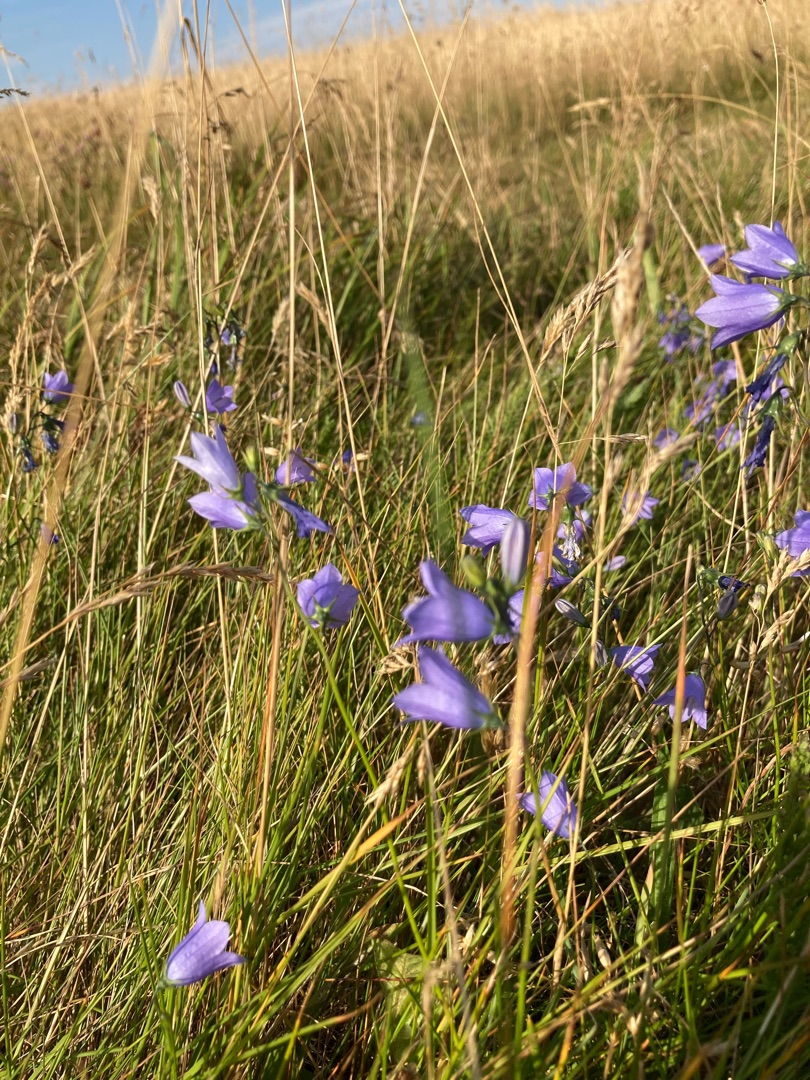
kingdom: Plantae
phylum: Tracheophyta
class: Magnoliopsida
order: Asterales
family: Campanulaceae
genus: Campanula
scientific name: Campanula rotundifolia
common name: Liden klokke
